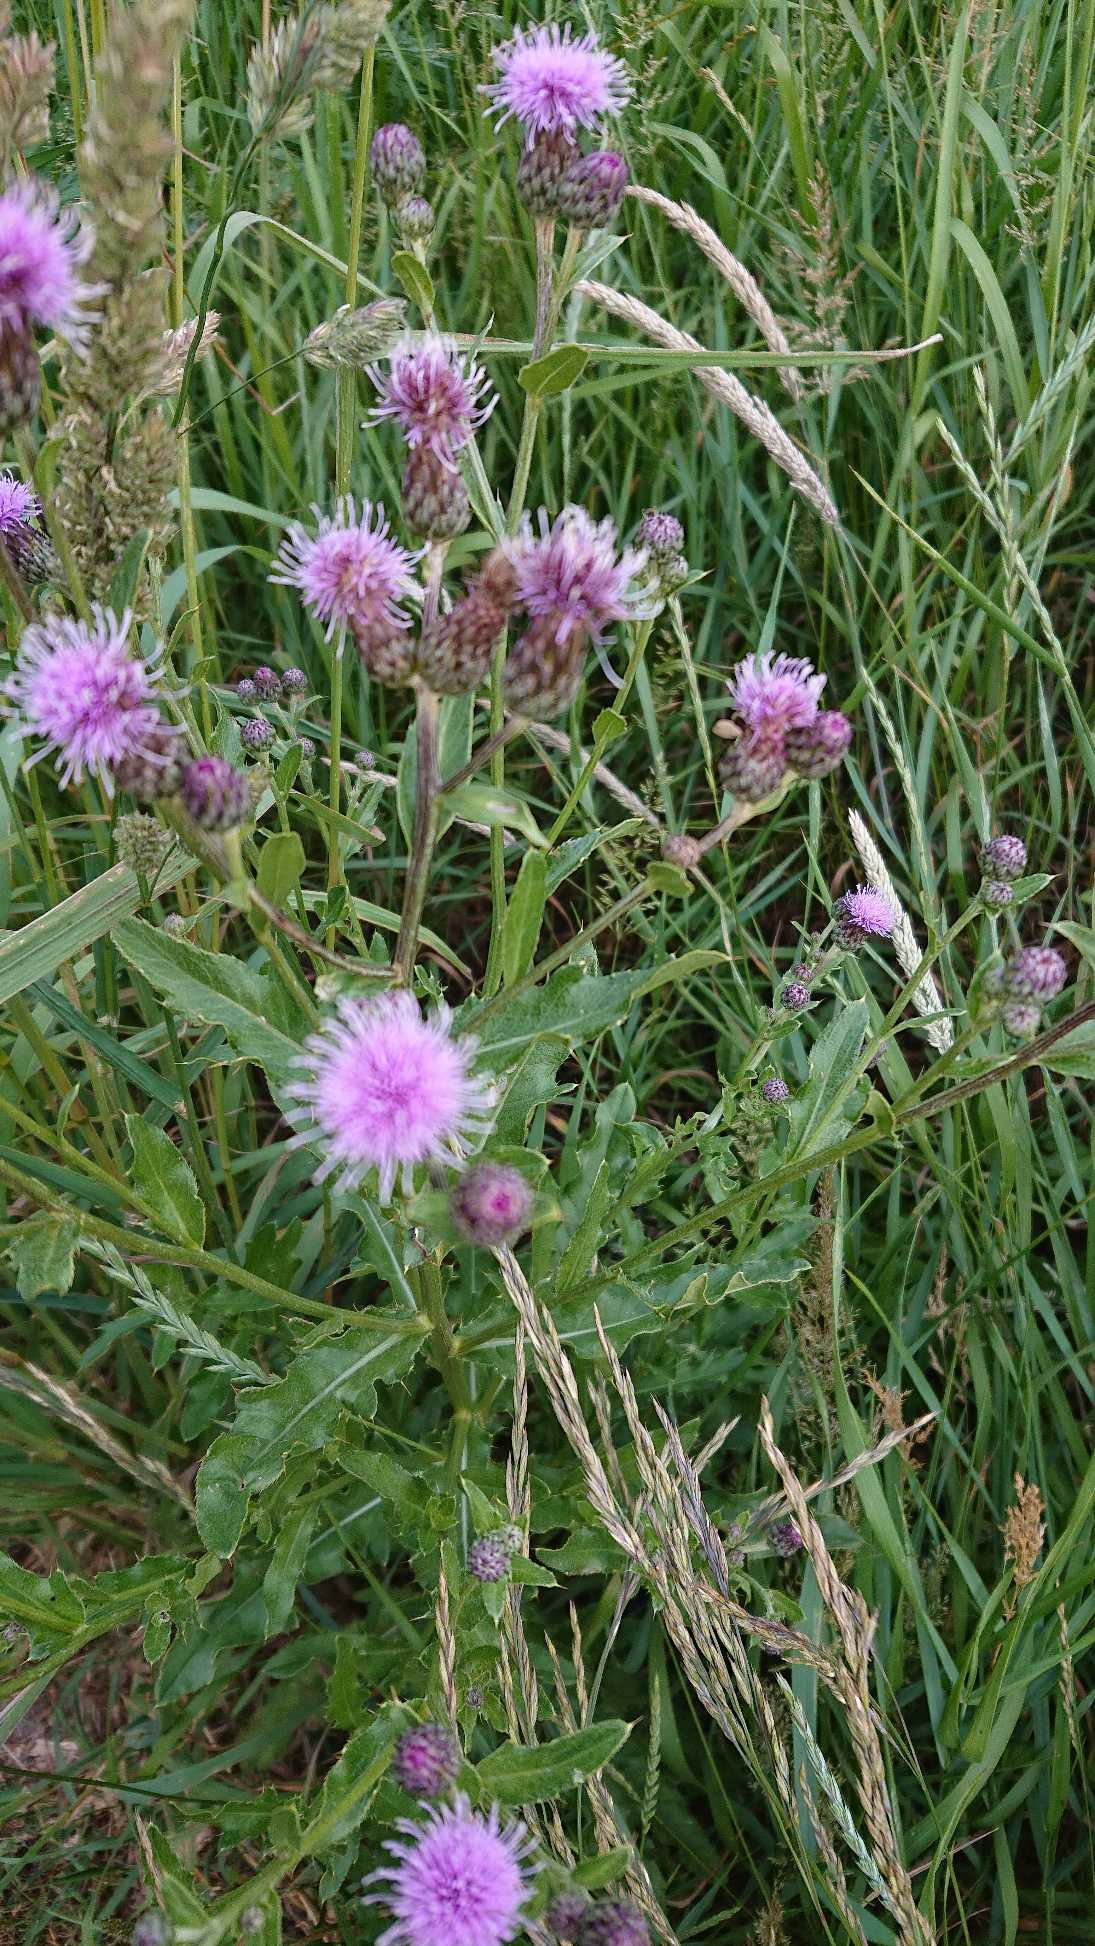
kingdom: Plantae
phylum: Tracheophyta
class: Magnoliopsida
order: Asterales
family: Asteraceae
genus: Cirsium
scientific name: Cirsium arvense
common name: Ager-tidsel
